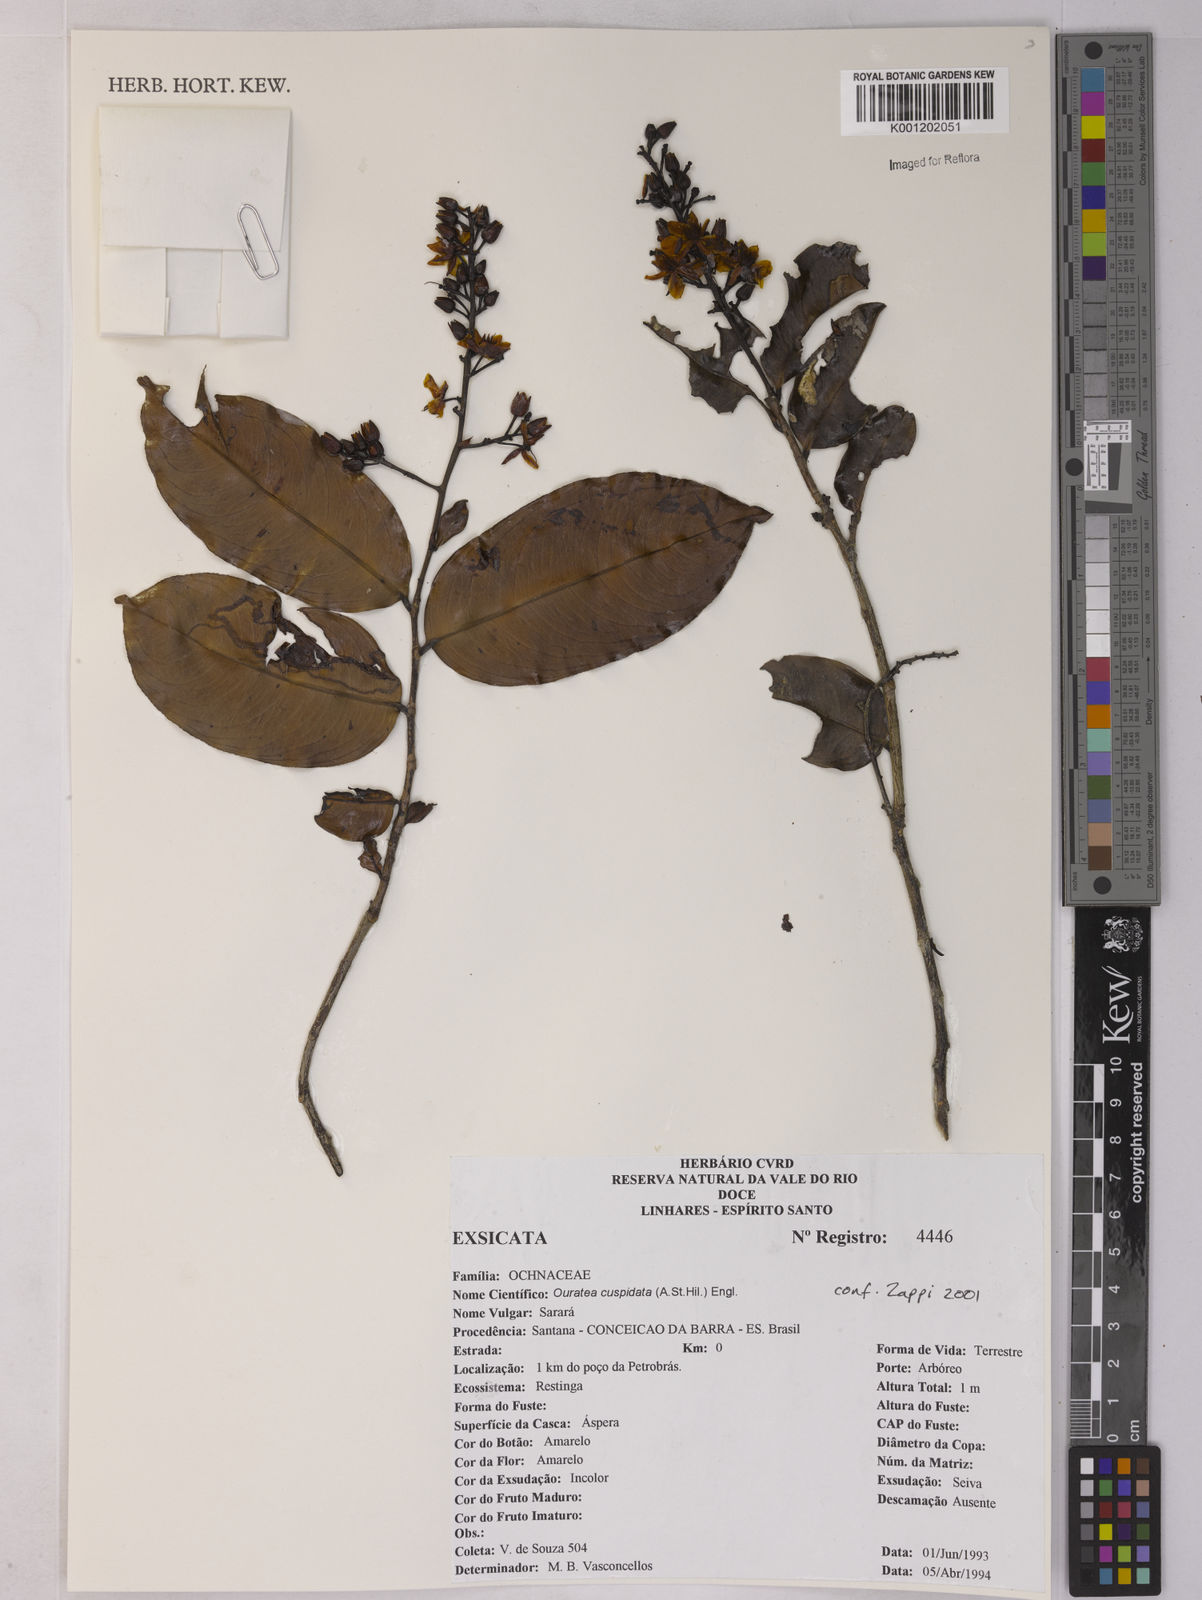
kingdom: Plantae
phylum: Tracheophyta
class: Magnoliopsida
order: Malpighiales
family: Ochnaceae
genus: Ouratea
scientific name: Ouratea cuspidata
